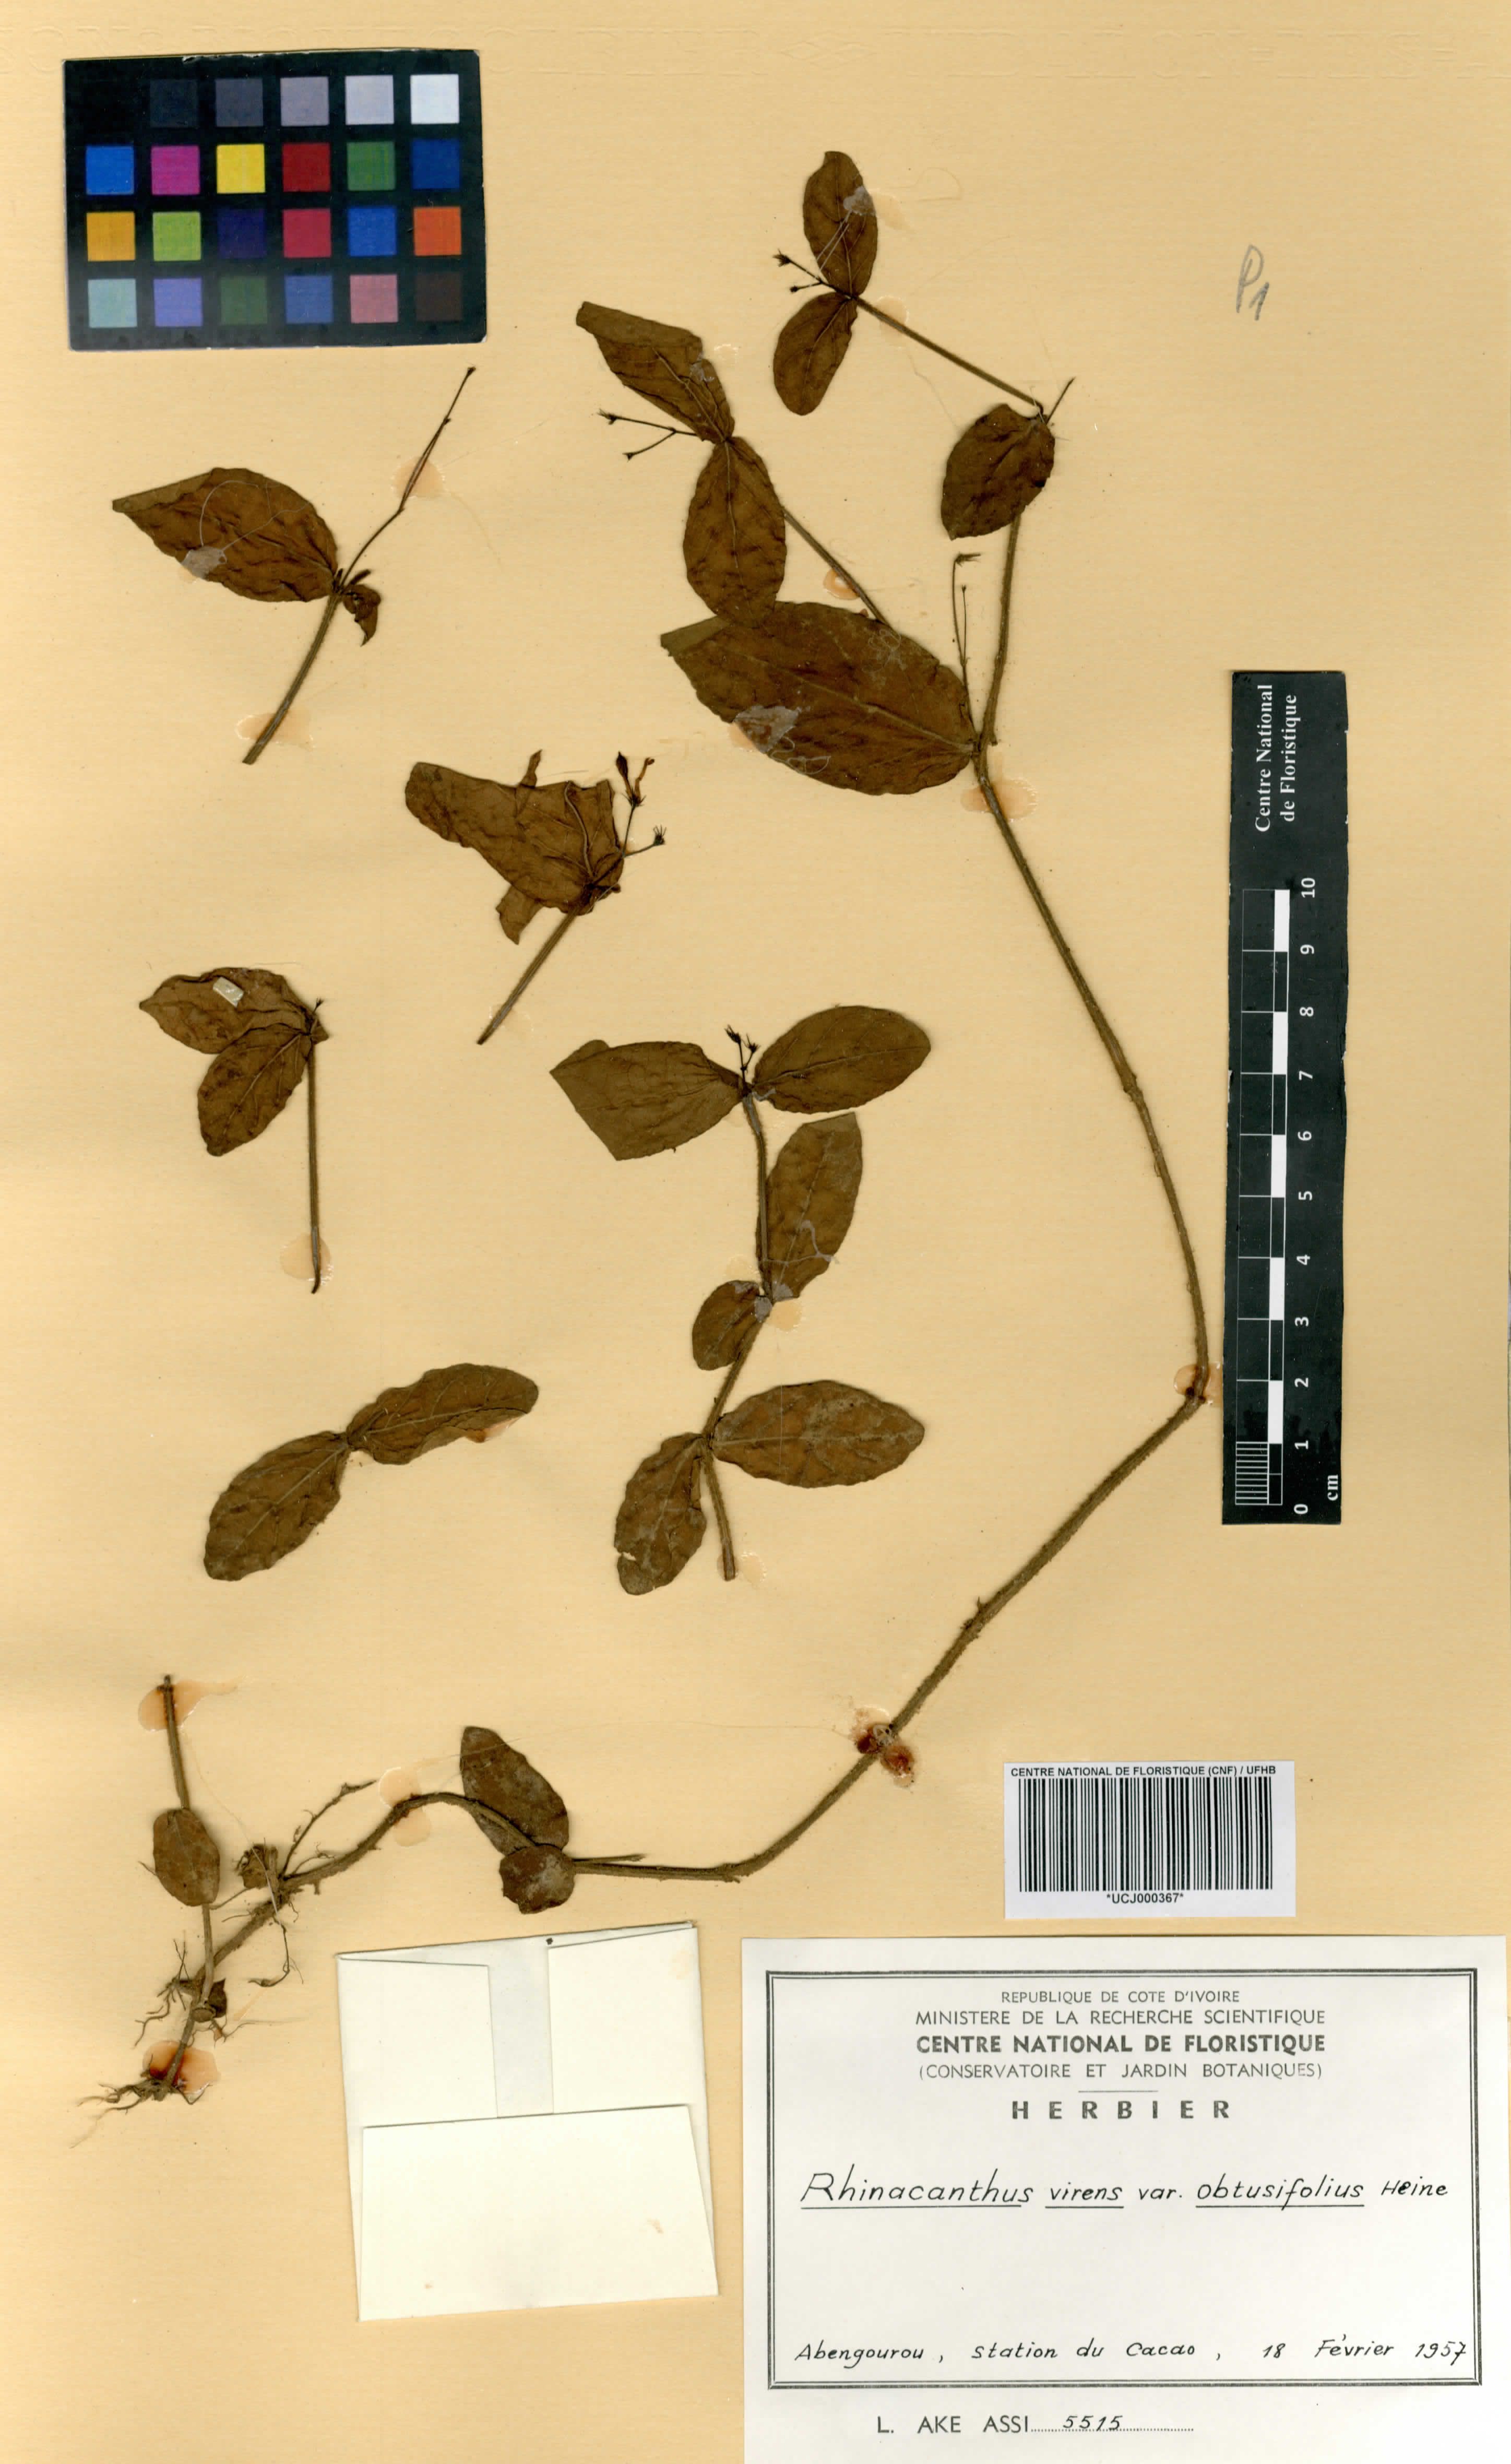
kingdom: Plantae
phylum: Tracheophyta
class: Magnoliopsida
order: Lamiales
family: Acanthaceae
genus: Rhinacanthus
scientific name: Rhinacanthus obtusifolius
